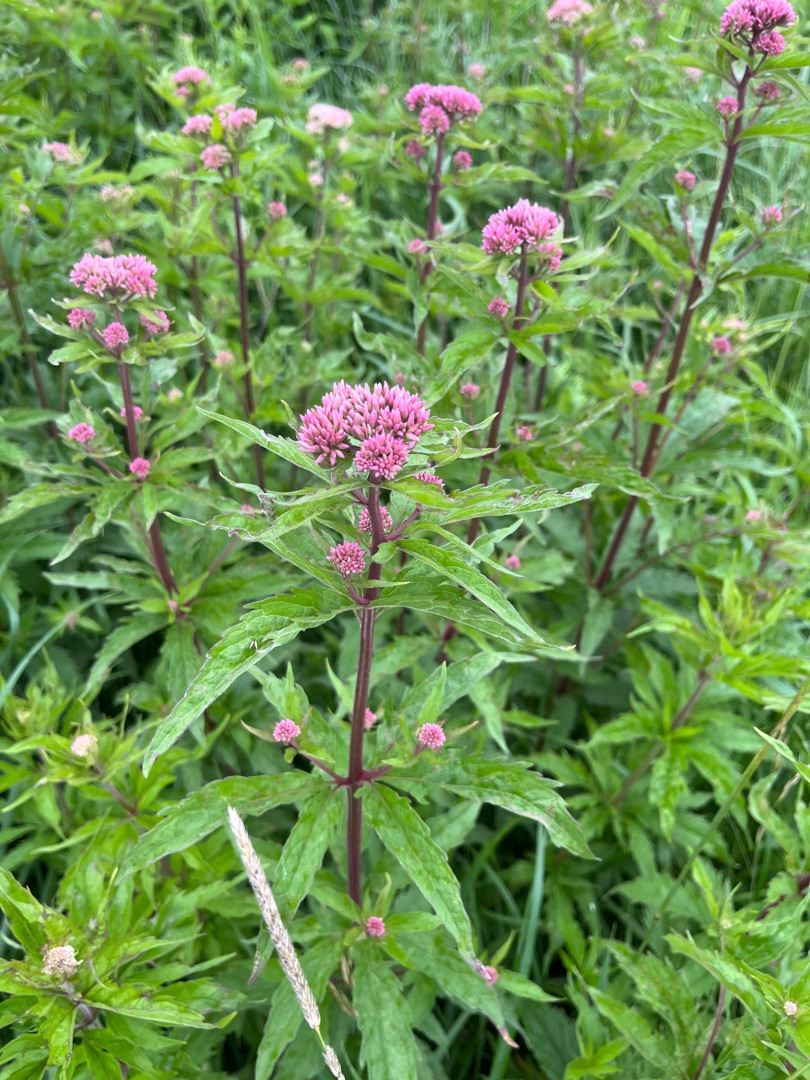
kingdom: Plantae
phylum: Tracheophyta
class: Magnoliopsida
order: Asterales
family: Asteraceae
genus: Eupatorium
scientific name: Eupatorium cannabinum
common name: Hjortetrøst
